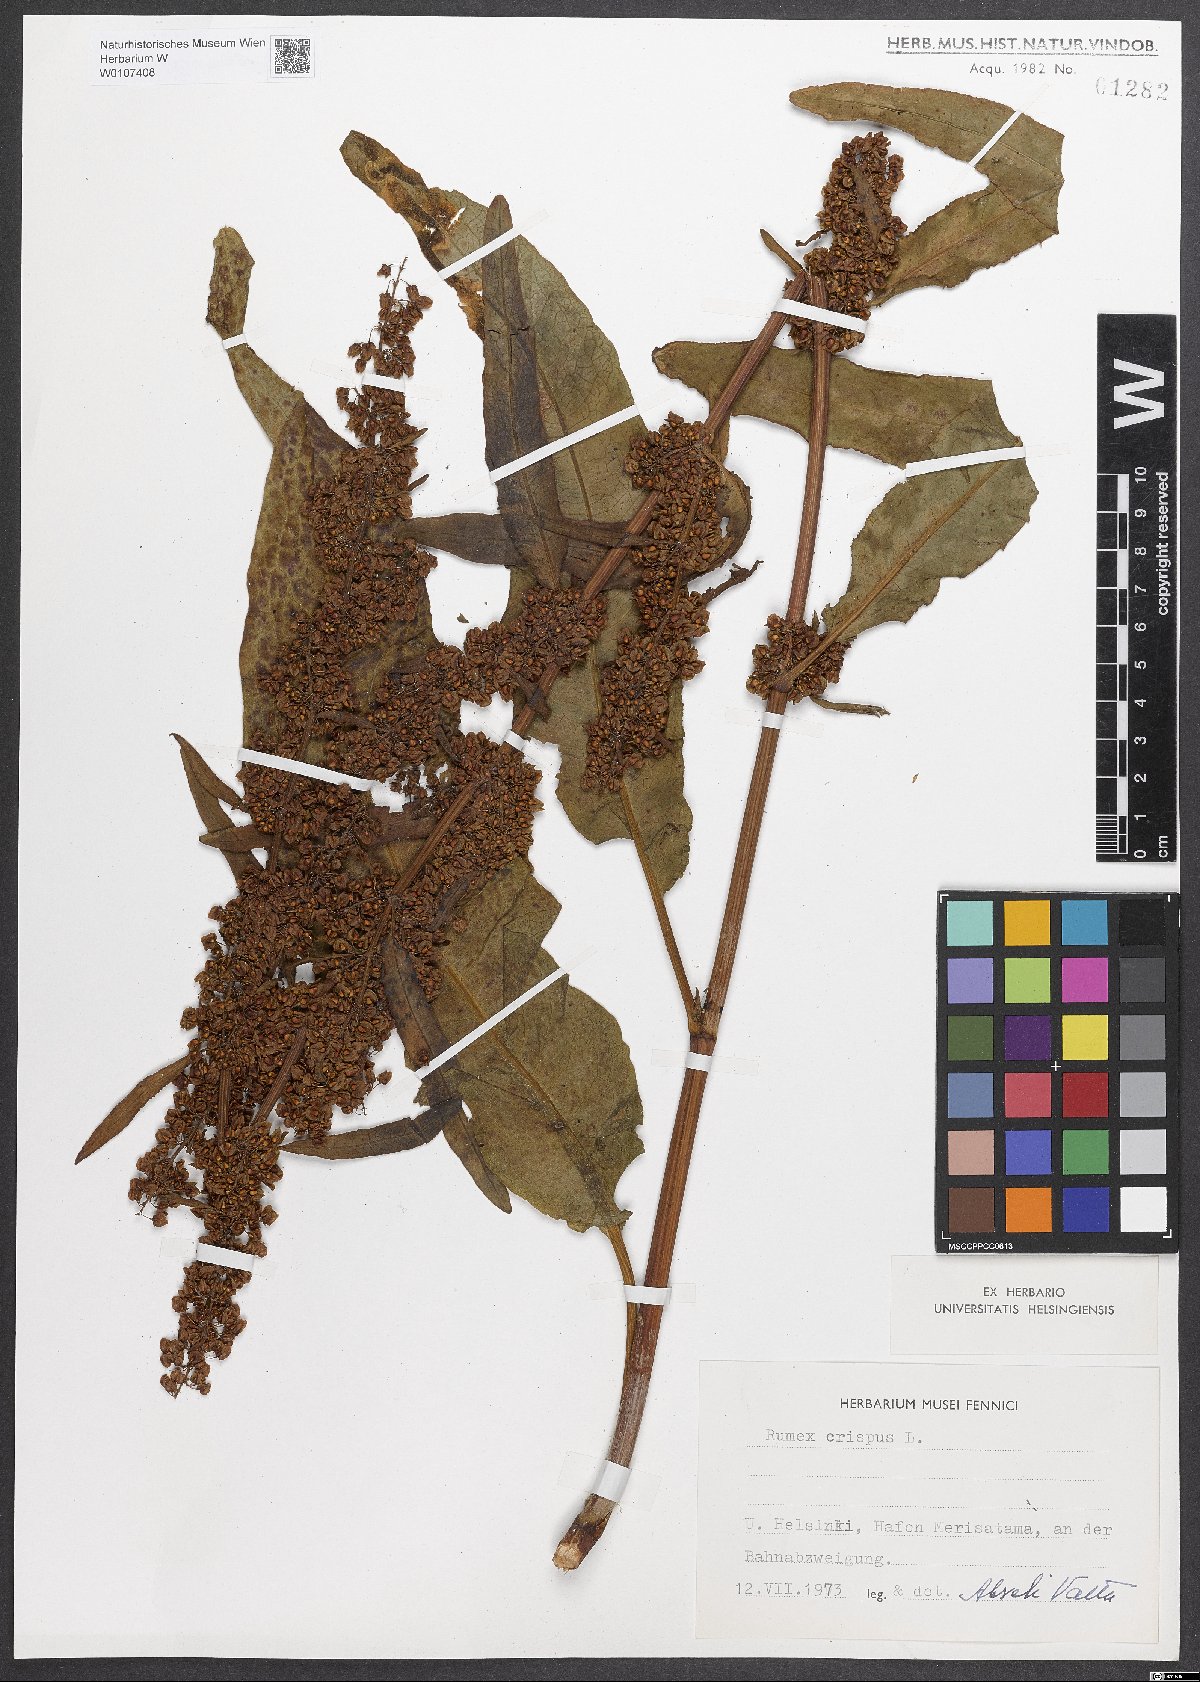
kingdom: Plantae
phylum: Tracheophyta
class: Magnoliopsida
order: Caryophyllales
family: Polygonaceae
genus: Rumex
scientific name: Rumex crispus
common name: Curled dock
